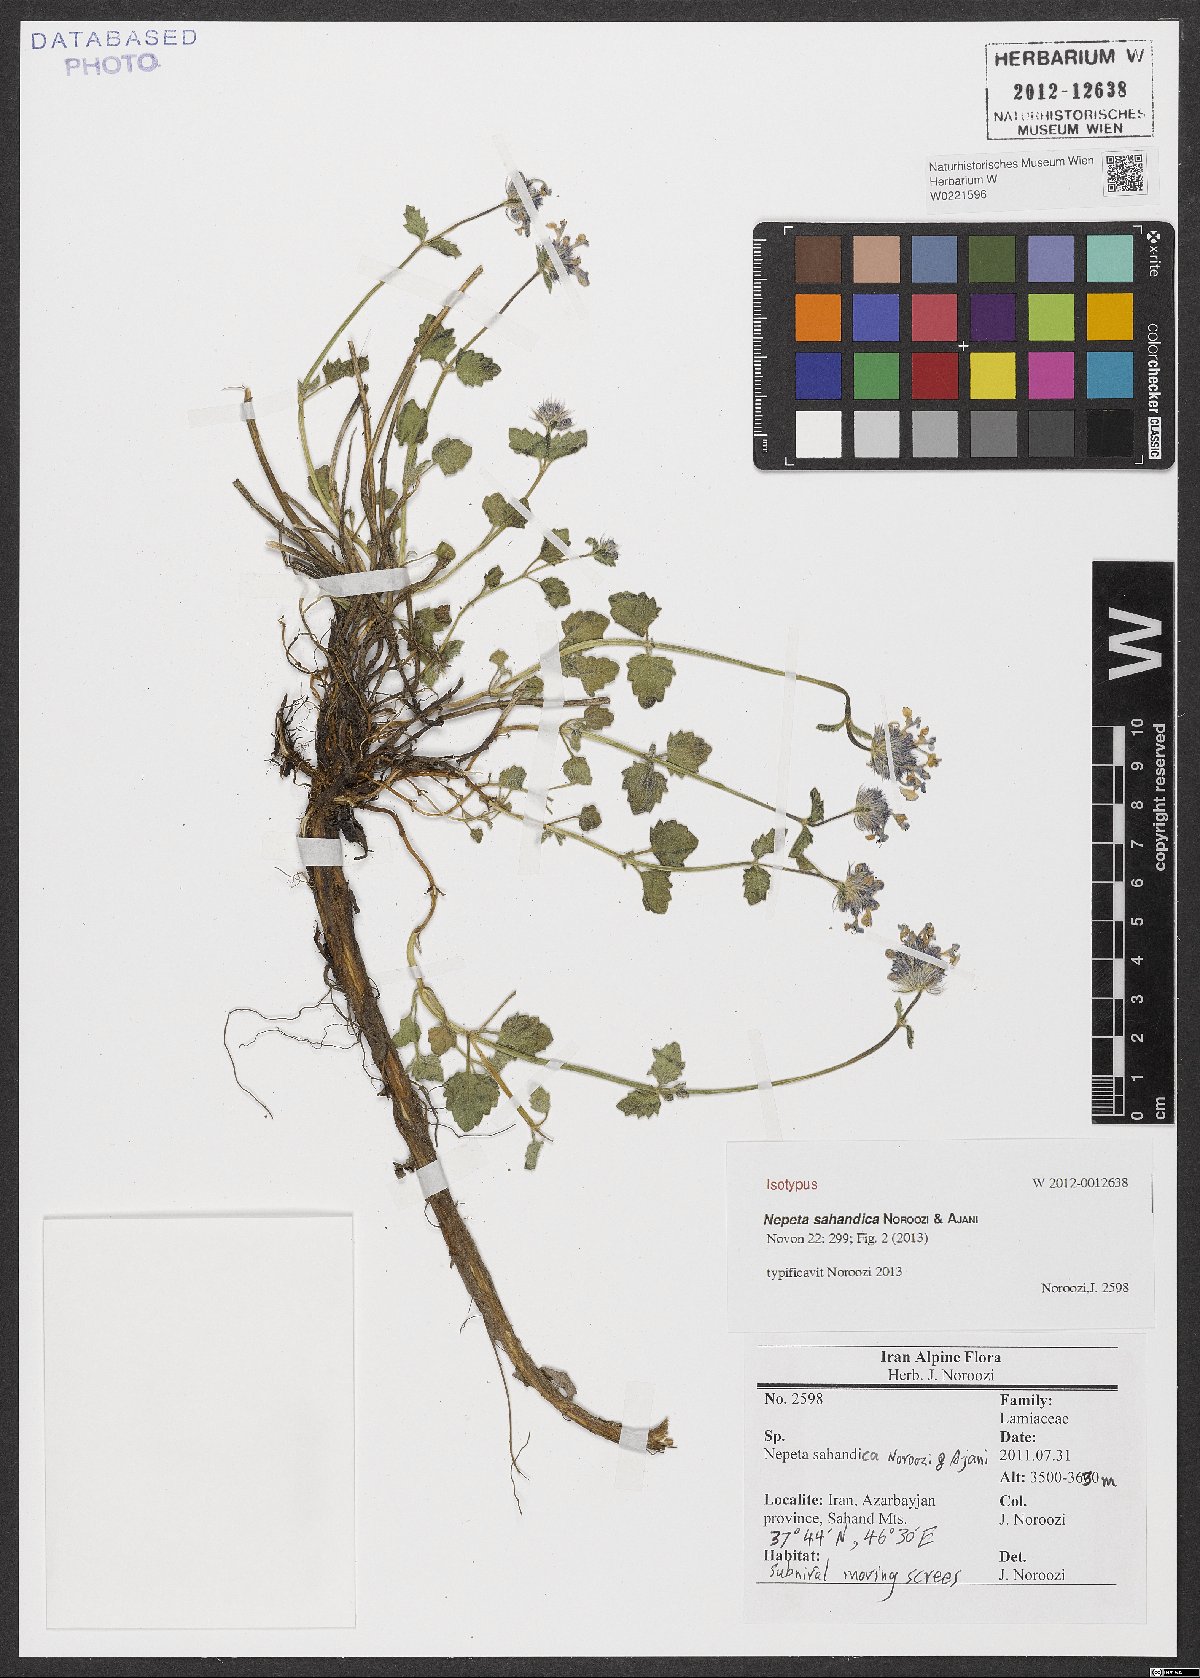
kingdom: Plantae
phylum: Tracheophyta
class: Magnoliopsida
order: Lamiales
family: Lamiaceae
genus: Nepeta
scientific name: Nepeta sahandica
